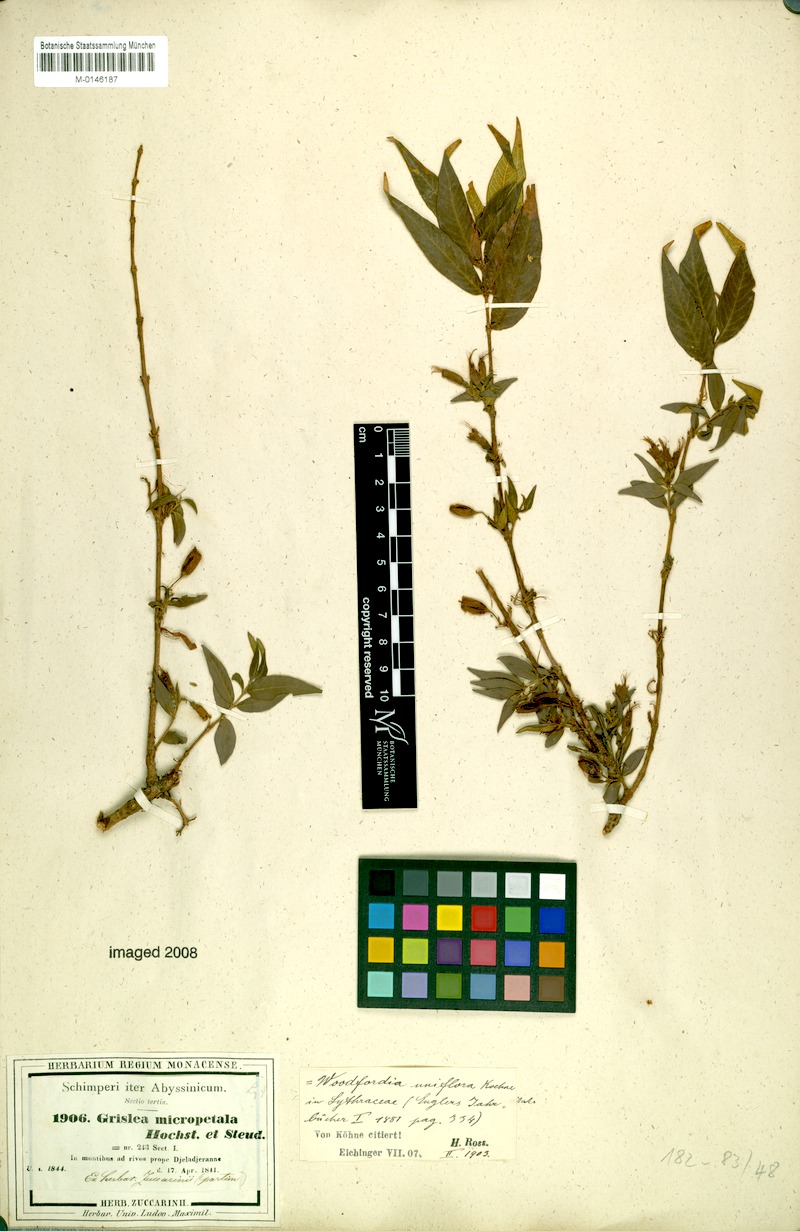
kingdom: Plantae
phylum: Tracheophyta
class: Magnoliopsida
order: Myrtales
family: Lythraceae
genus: Woodfordia
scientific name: Woodfordia uniflora
